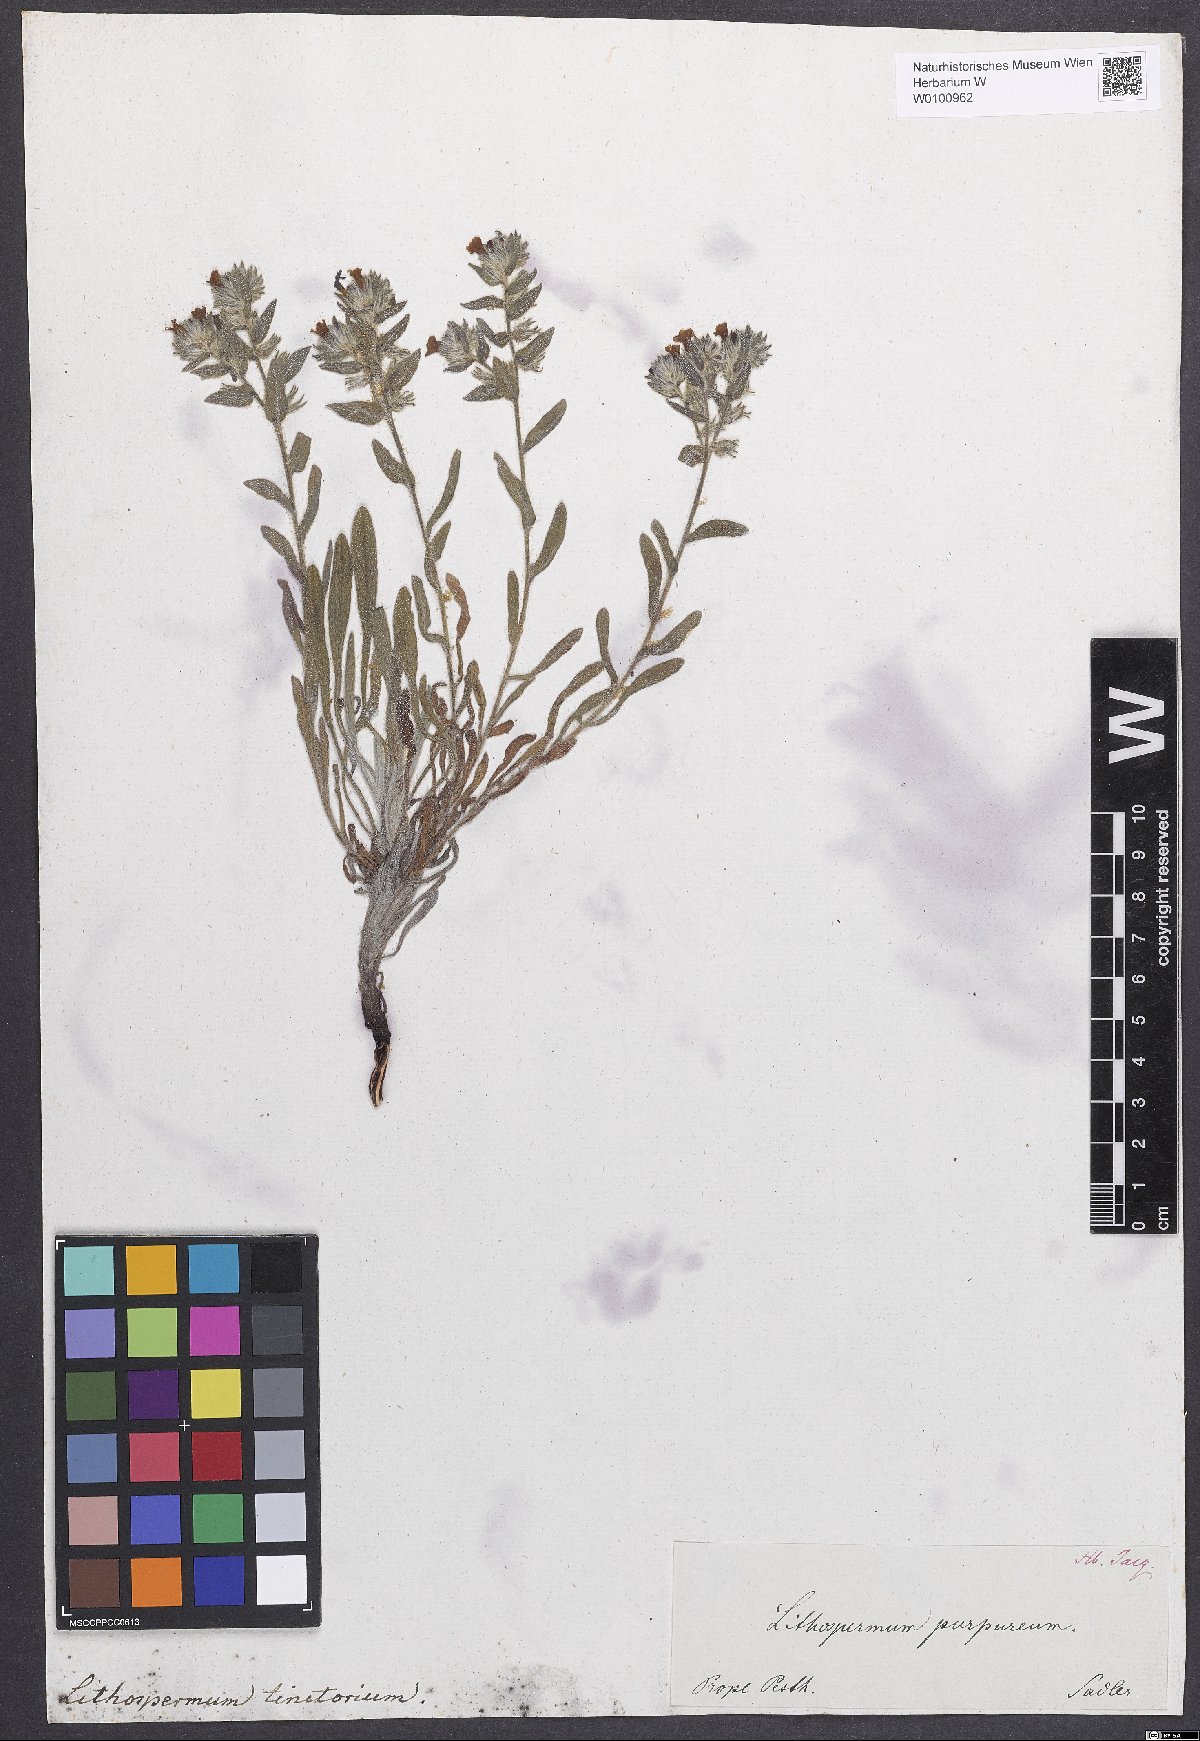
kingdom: Plantae
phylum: Tracheophyta
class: Magnoliopsida
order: Boraginales
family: Boraginaceae
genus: Alkanna
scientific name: Alkanna tinctoria
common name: Dyer's-alkanet
